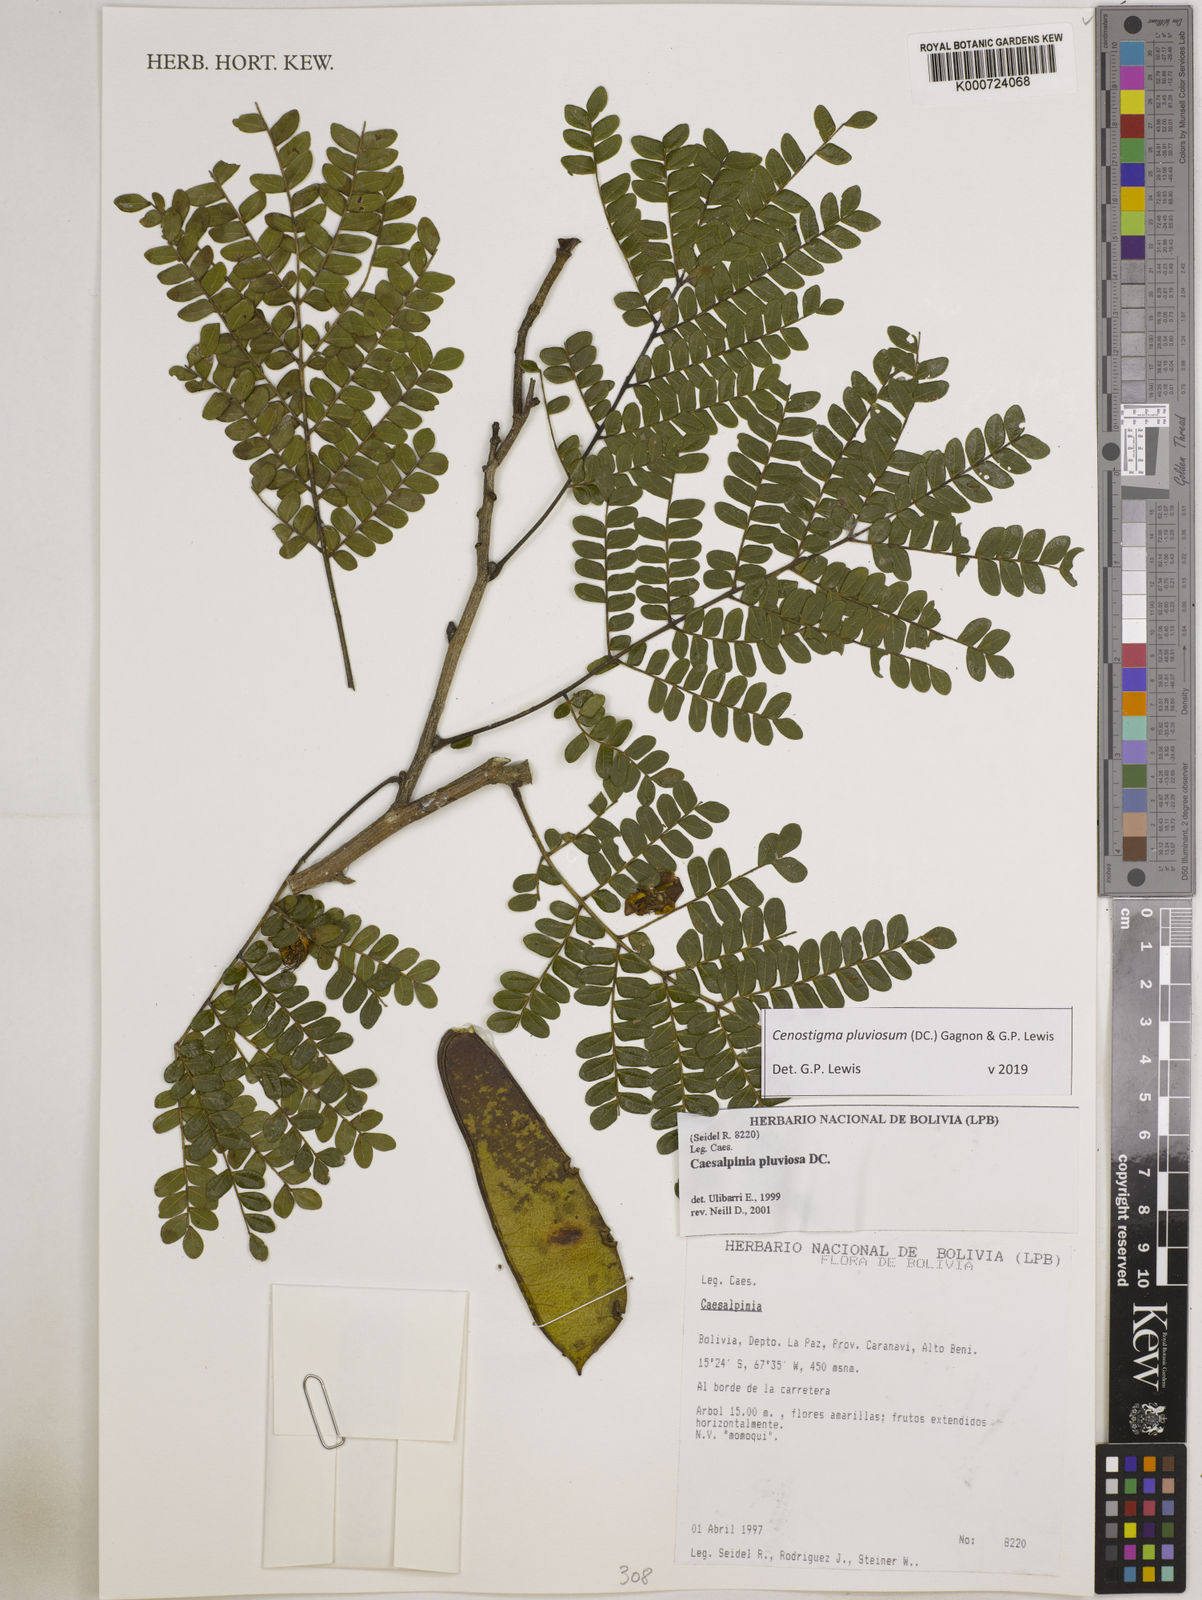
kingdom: Plantae
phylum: Tracheophyta
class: Magnoliopsida
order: Fabales
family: Fabaceae
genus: Cenostigma
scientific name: Cenostigma pluviosum
